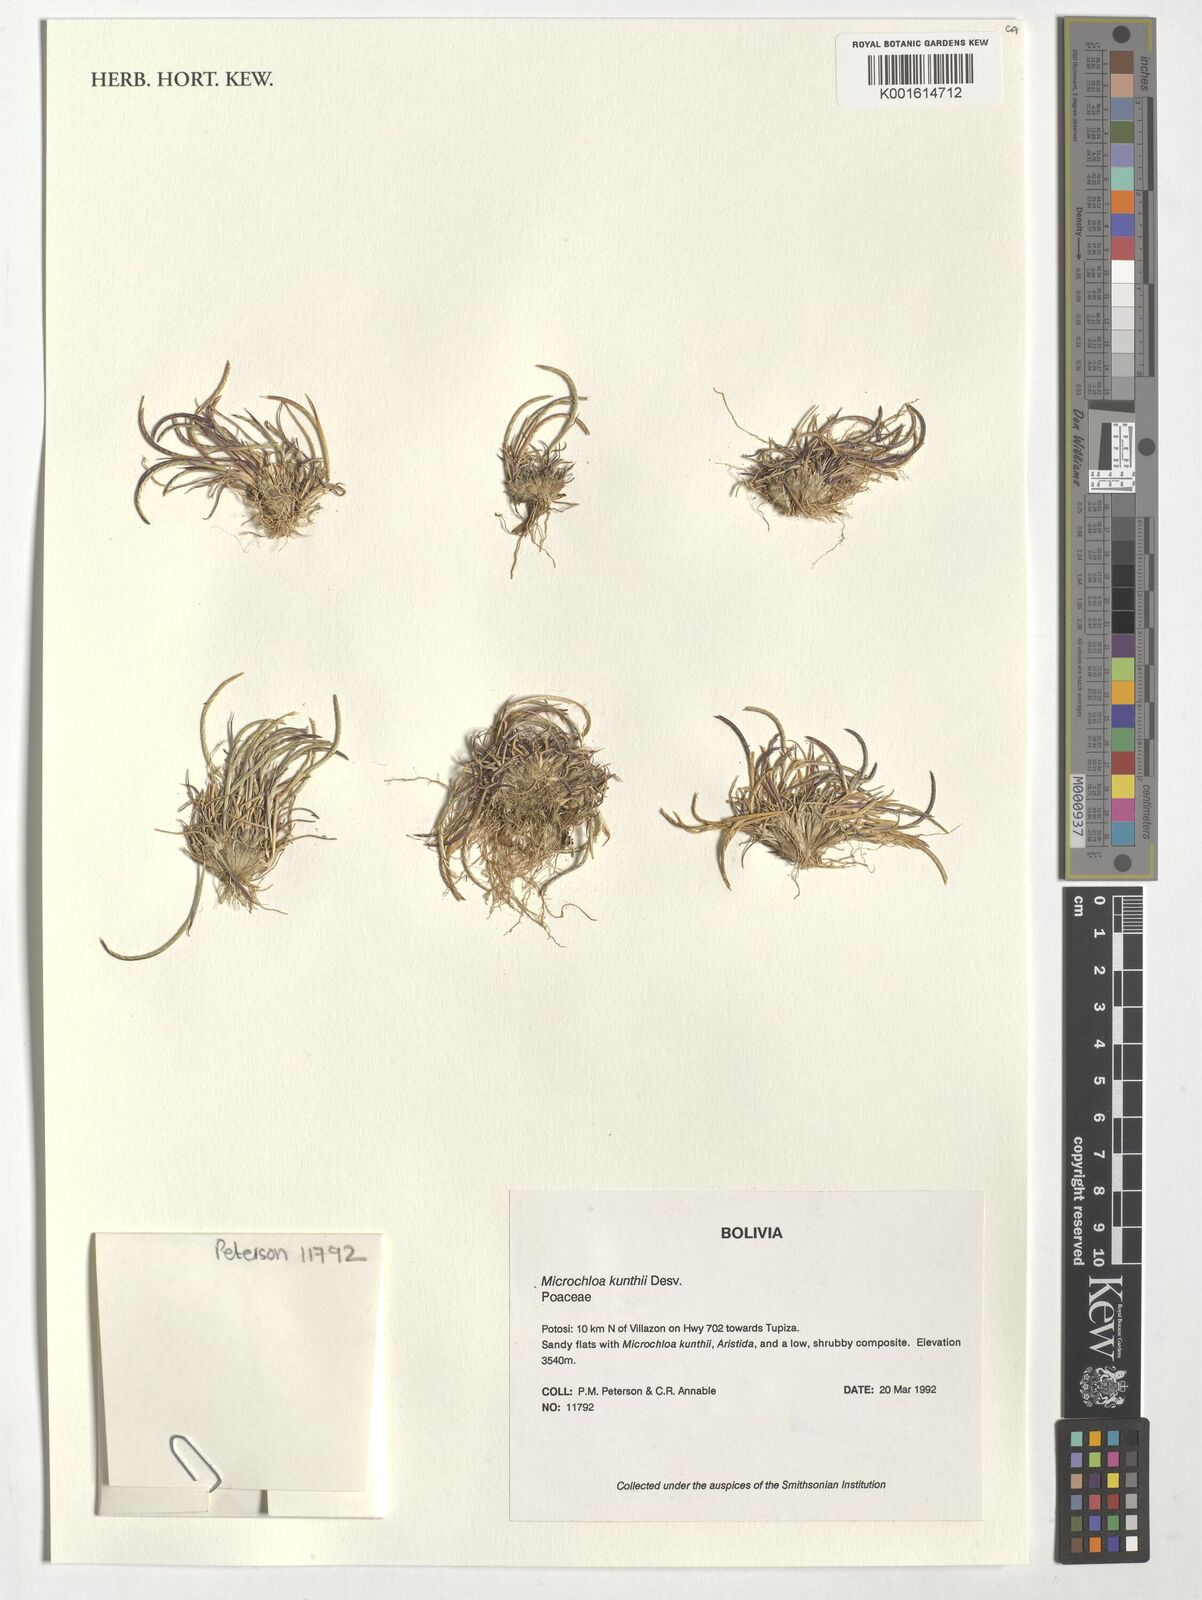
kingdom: Plantae
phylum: Tracheophyta
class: Liliopsida
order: Poales
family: Poaceae
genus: Microchloa
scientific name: Microchloa kunthii
